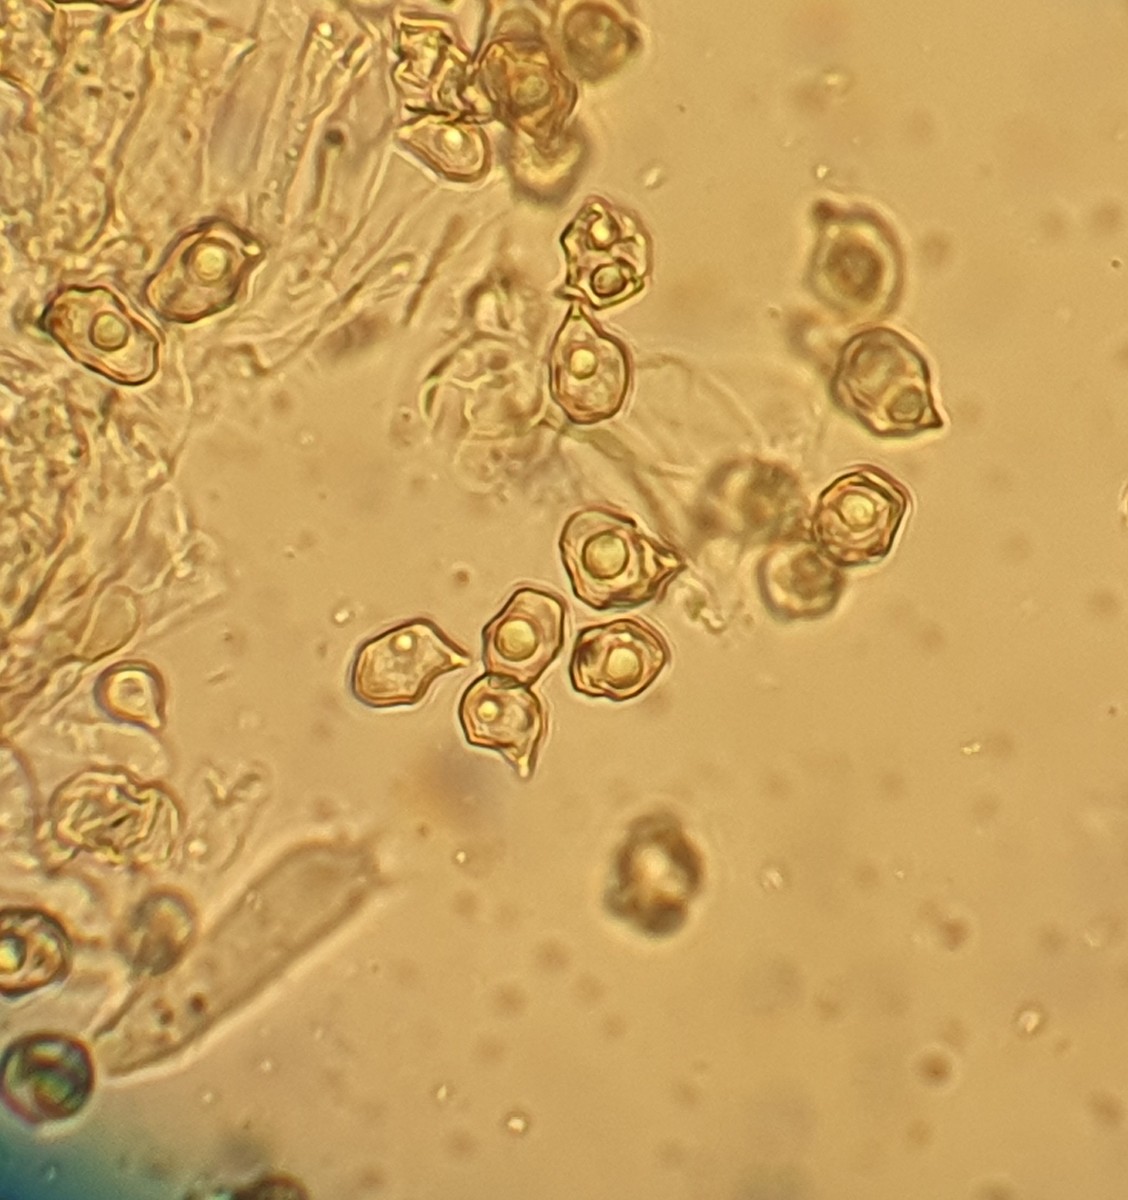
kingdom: Fungi
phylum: Basidiomycota
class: Agaricomycetes
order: Agaricales
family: Entolomataceae
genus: Entoloma
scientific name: Entoloma cetratum
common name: voks-rødblad
